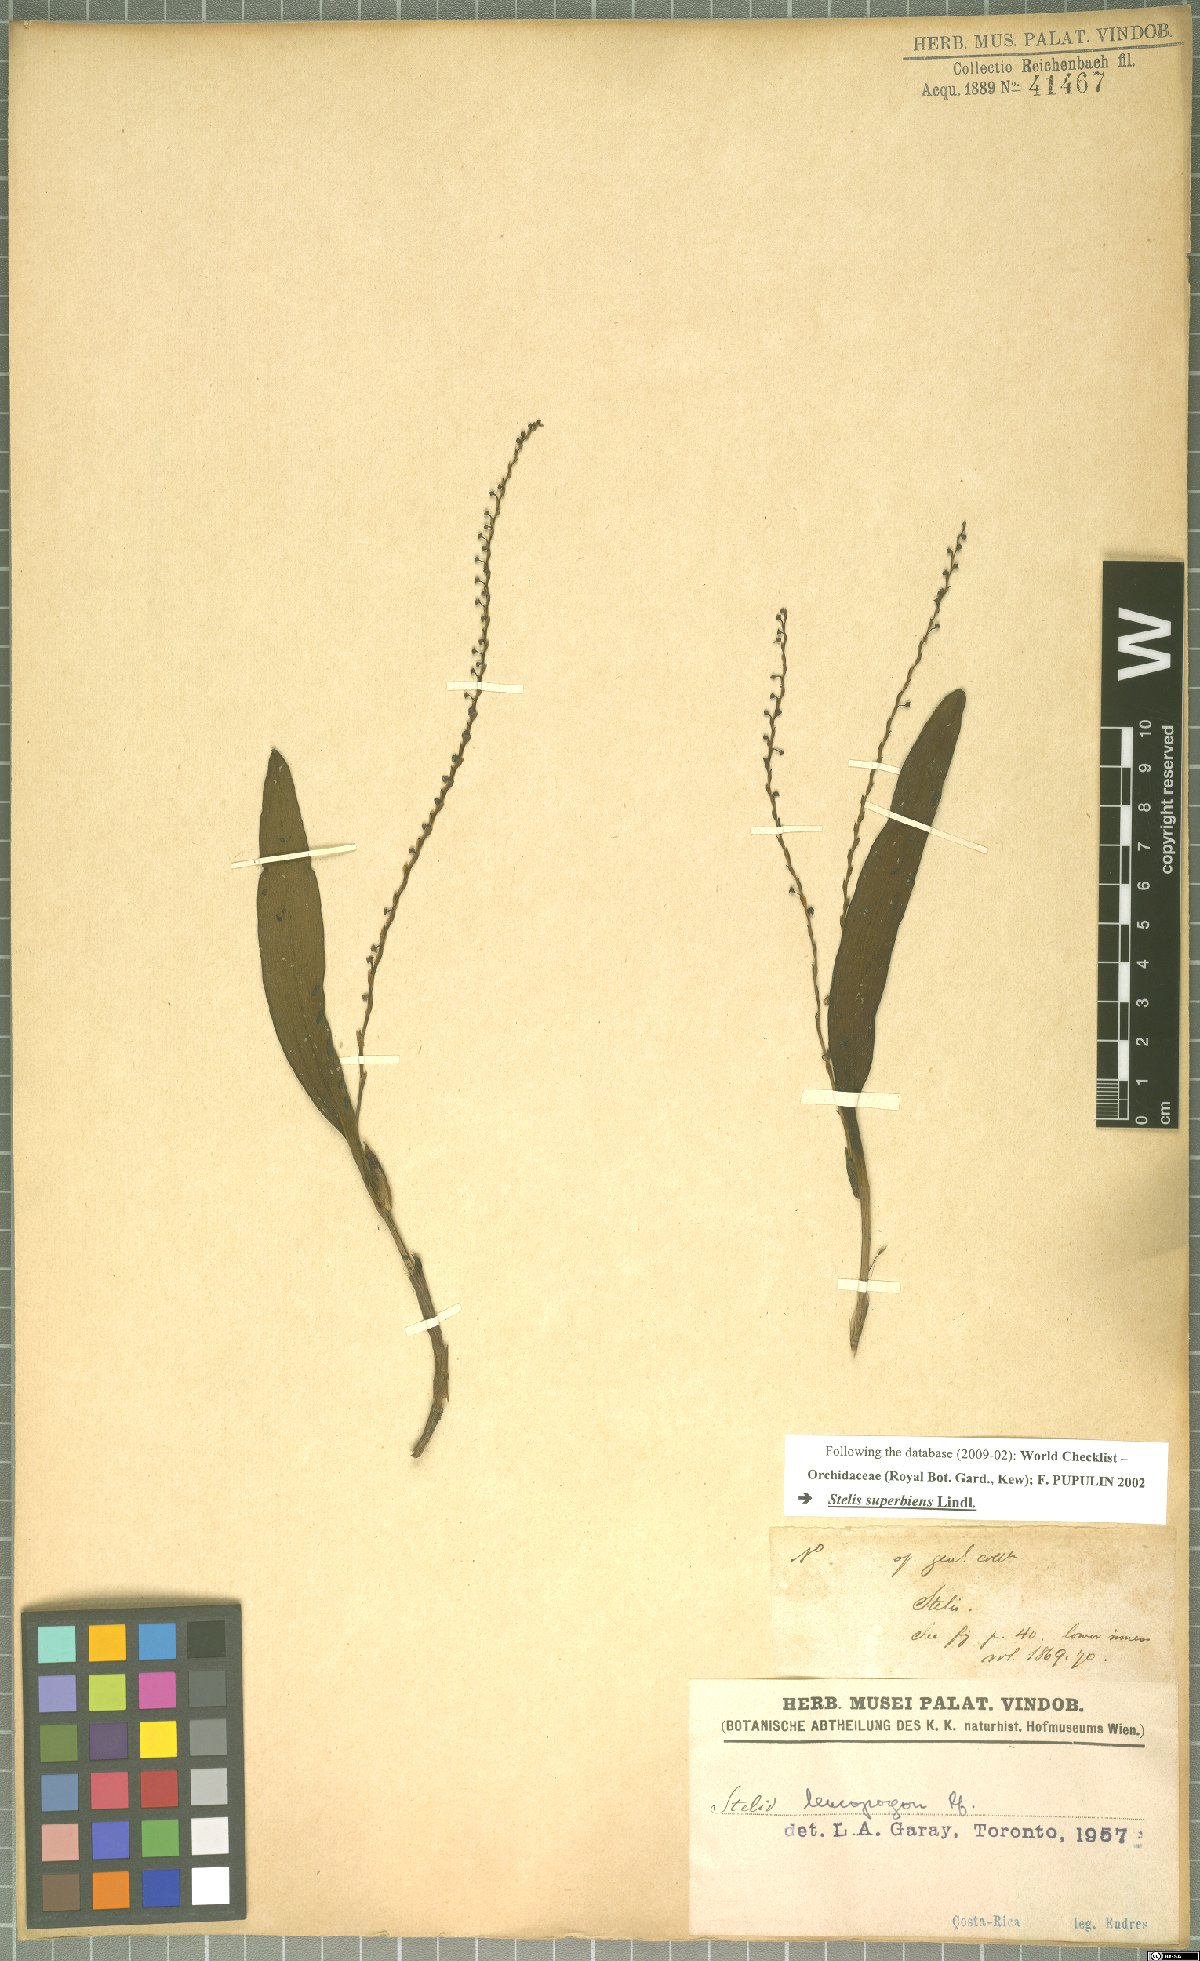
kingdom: Plantae
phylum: Tracheophyta
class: Liliopsida
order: Asparagales
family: Orchidaceae
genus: Stelis
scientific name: Stelis superbiens
